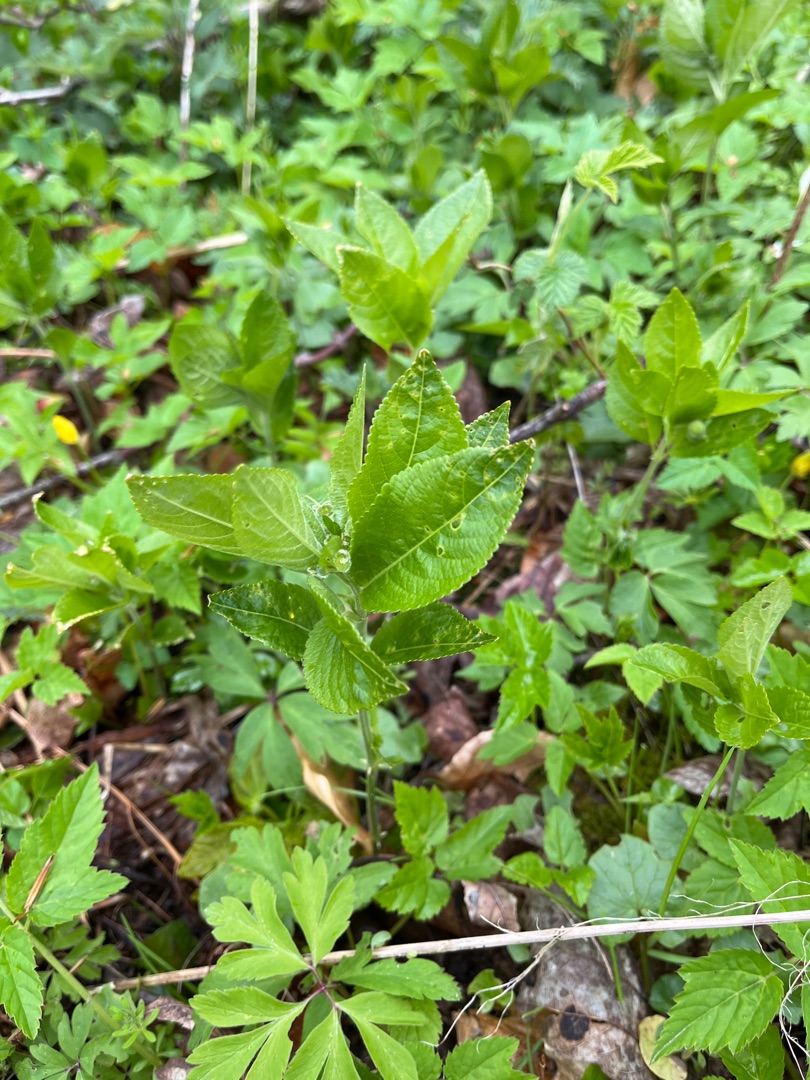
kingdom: Plantae
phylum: Tracheophyta
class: Magnoliopsida
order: Malpighiales
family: Euphorbiaceae
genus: Mercurialis
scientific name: Mercurialis perennis
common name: Almindelig bingelurt
